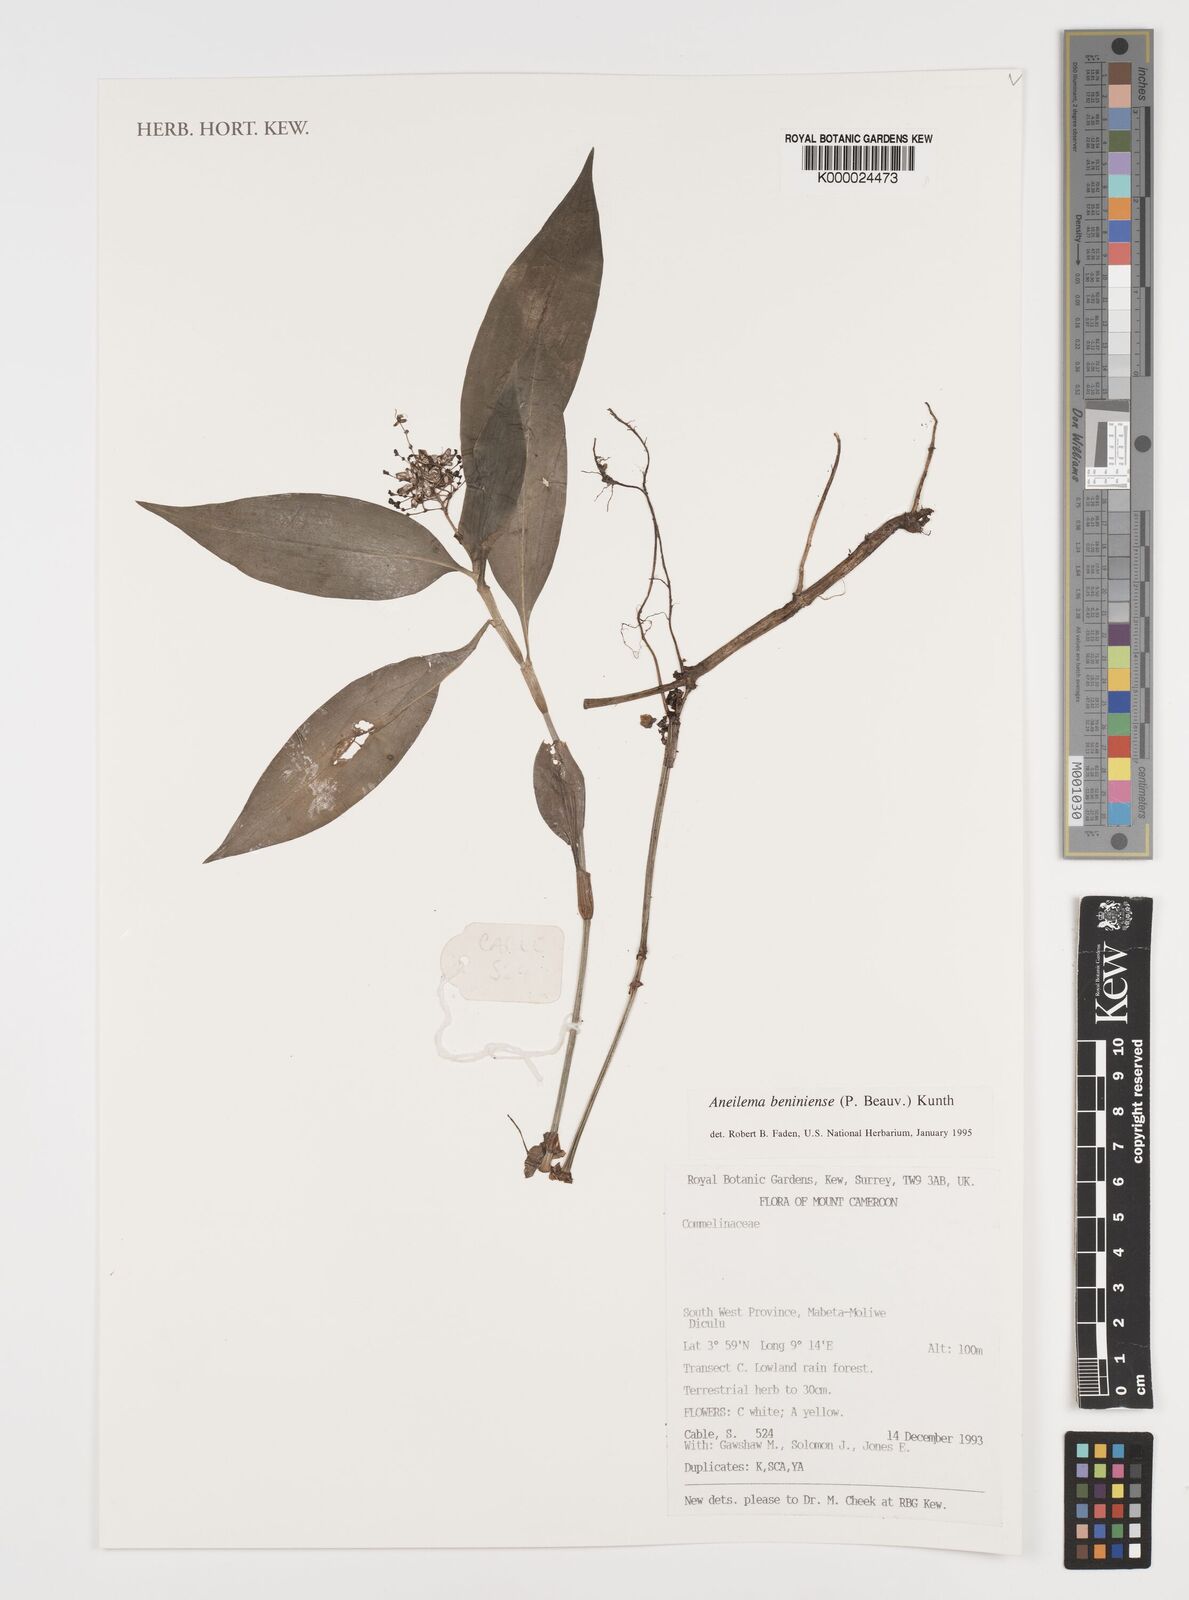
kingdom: Plantae
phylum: Tracheophyta
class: Liliopsida
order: Commelinales
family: Commelinaceae
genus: Aneilema
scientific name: Aneilema beniniense
